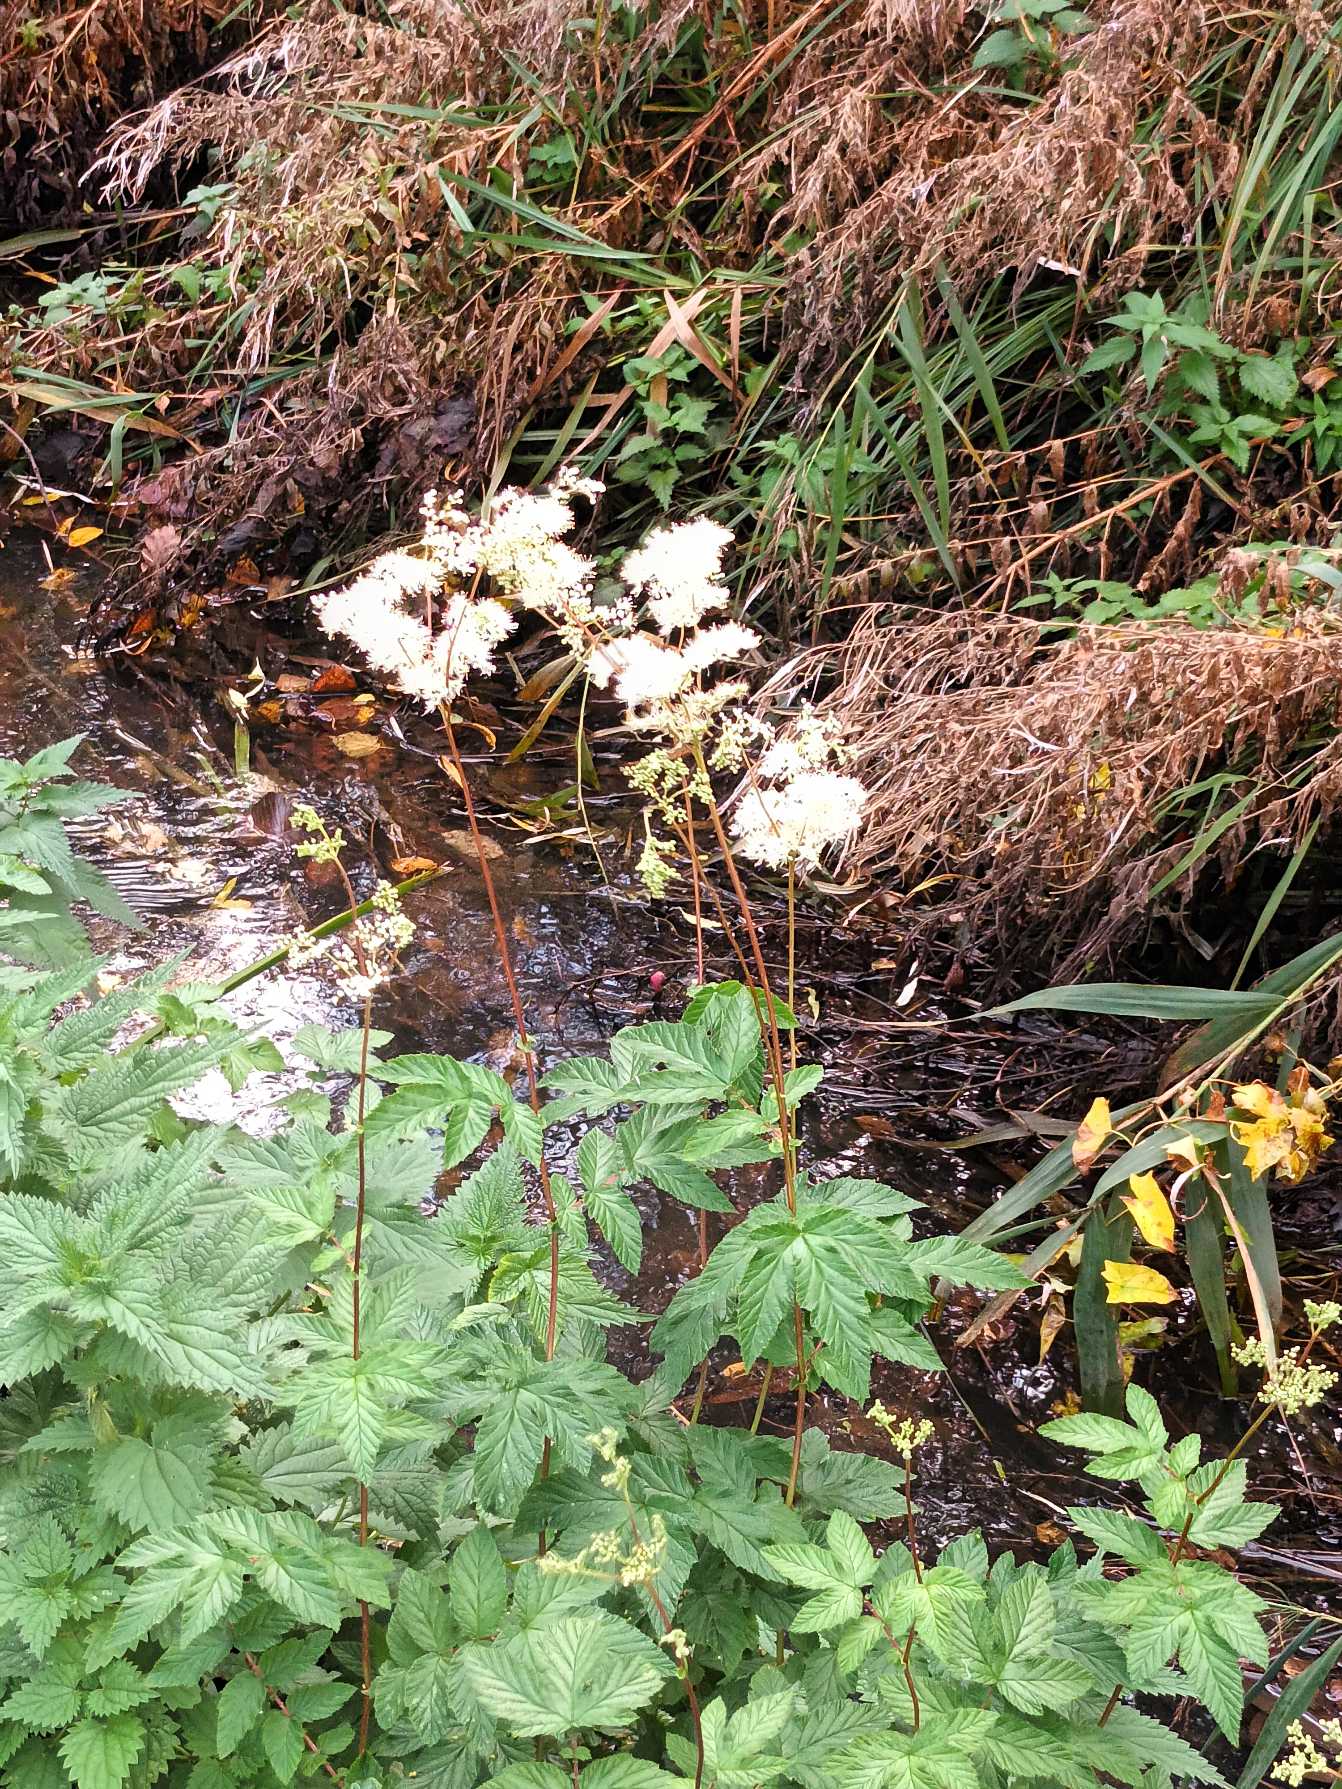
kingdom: Plantae
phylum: Tracheophyta
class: Magnoliopsida
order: Rosales
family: Rosaceae
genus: Filipendula
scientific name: Filipendula ulmaria
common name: Almindelig mjødurt
